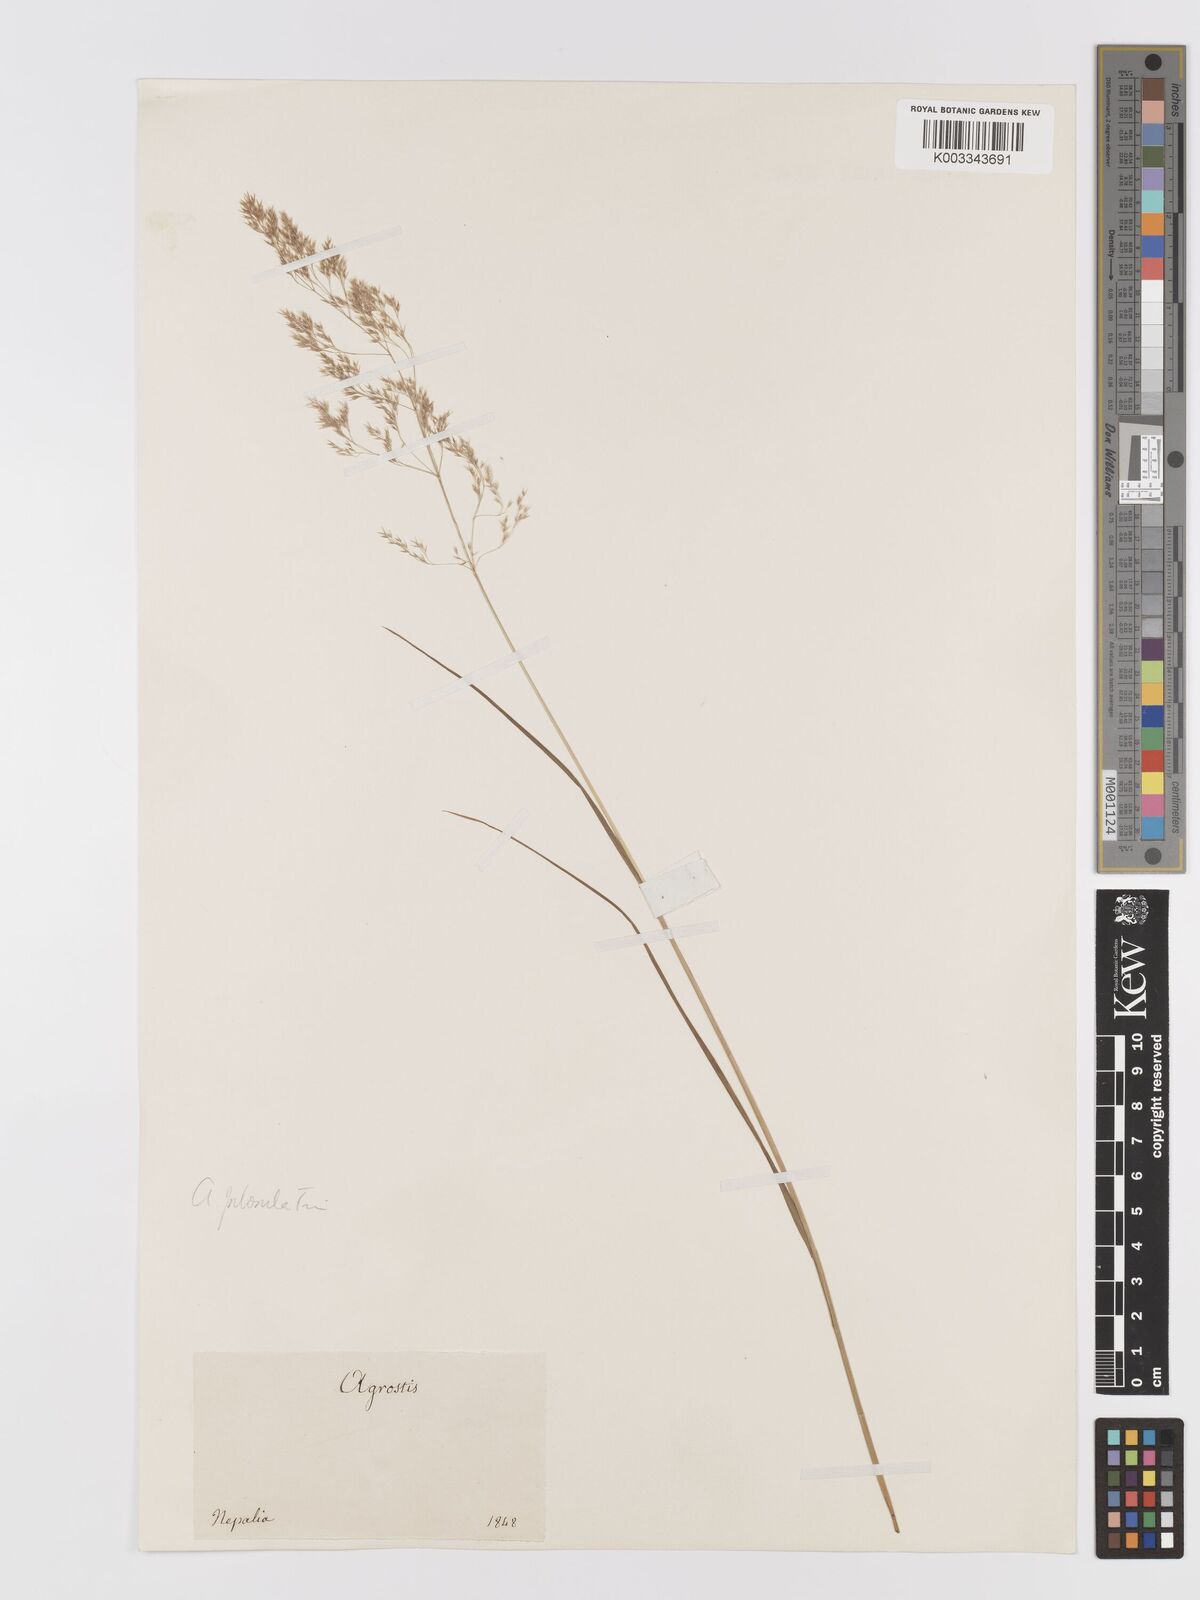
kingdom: Plantae
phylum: Tracheophyta
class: Liliopsida
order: Poales
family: Poaceae
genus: Agrostis
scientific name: Agrostis pilosula
